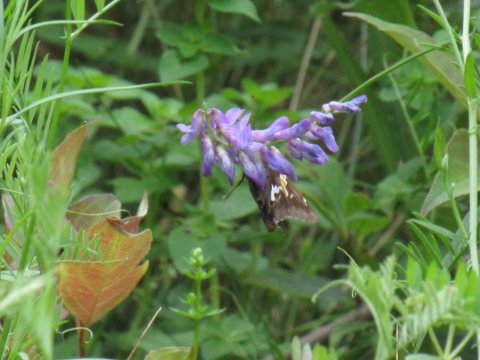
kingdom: Animalia
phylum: Arthropoda
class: Insecta
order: Lepidoptera
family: Hesperiidae
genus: Epargyreus
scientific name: Epargyreus clarus
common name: Silver-spotted Skipper
